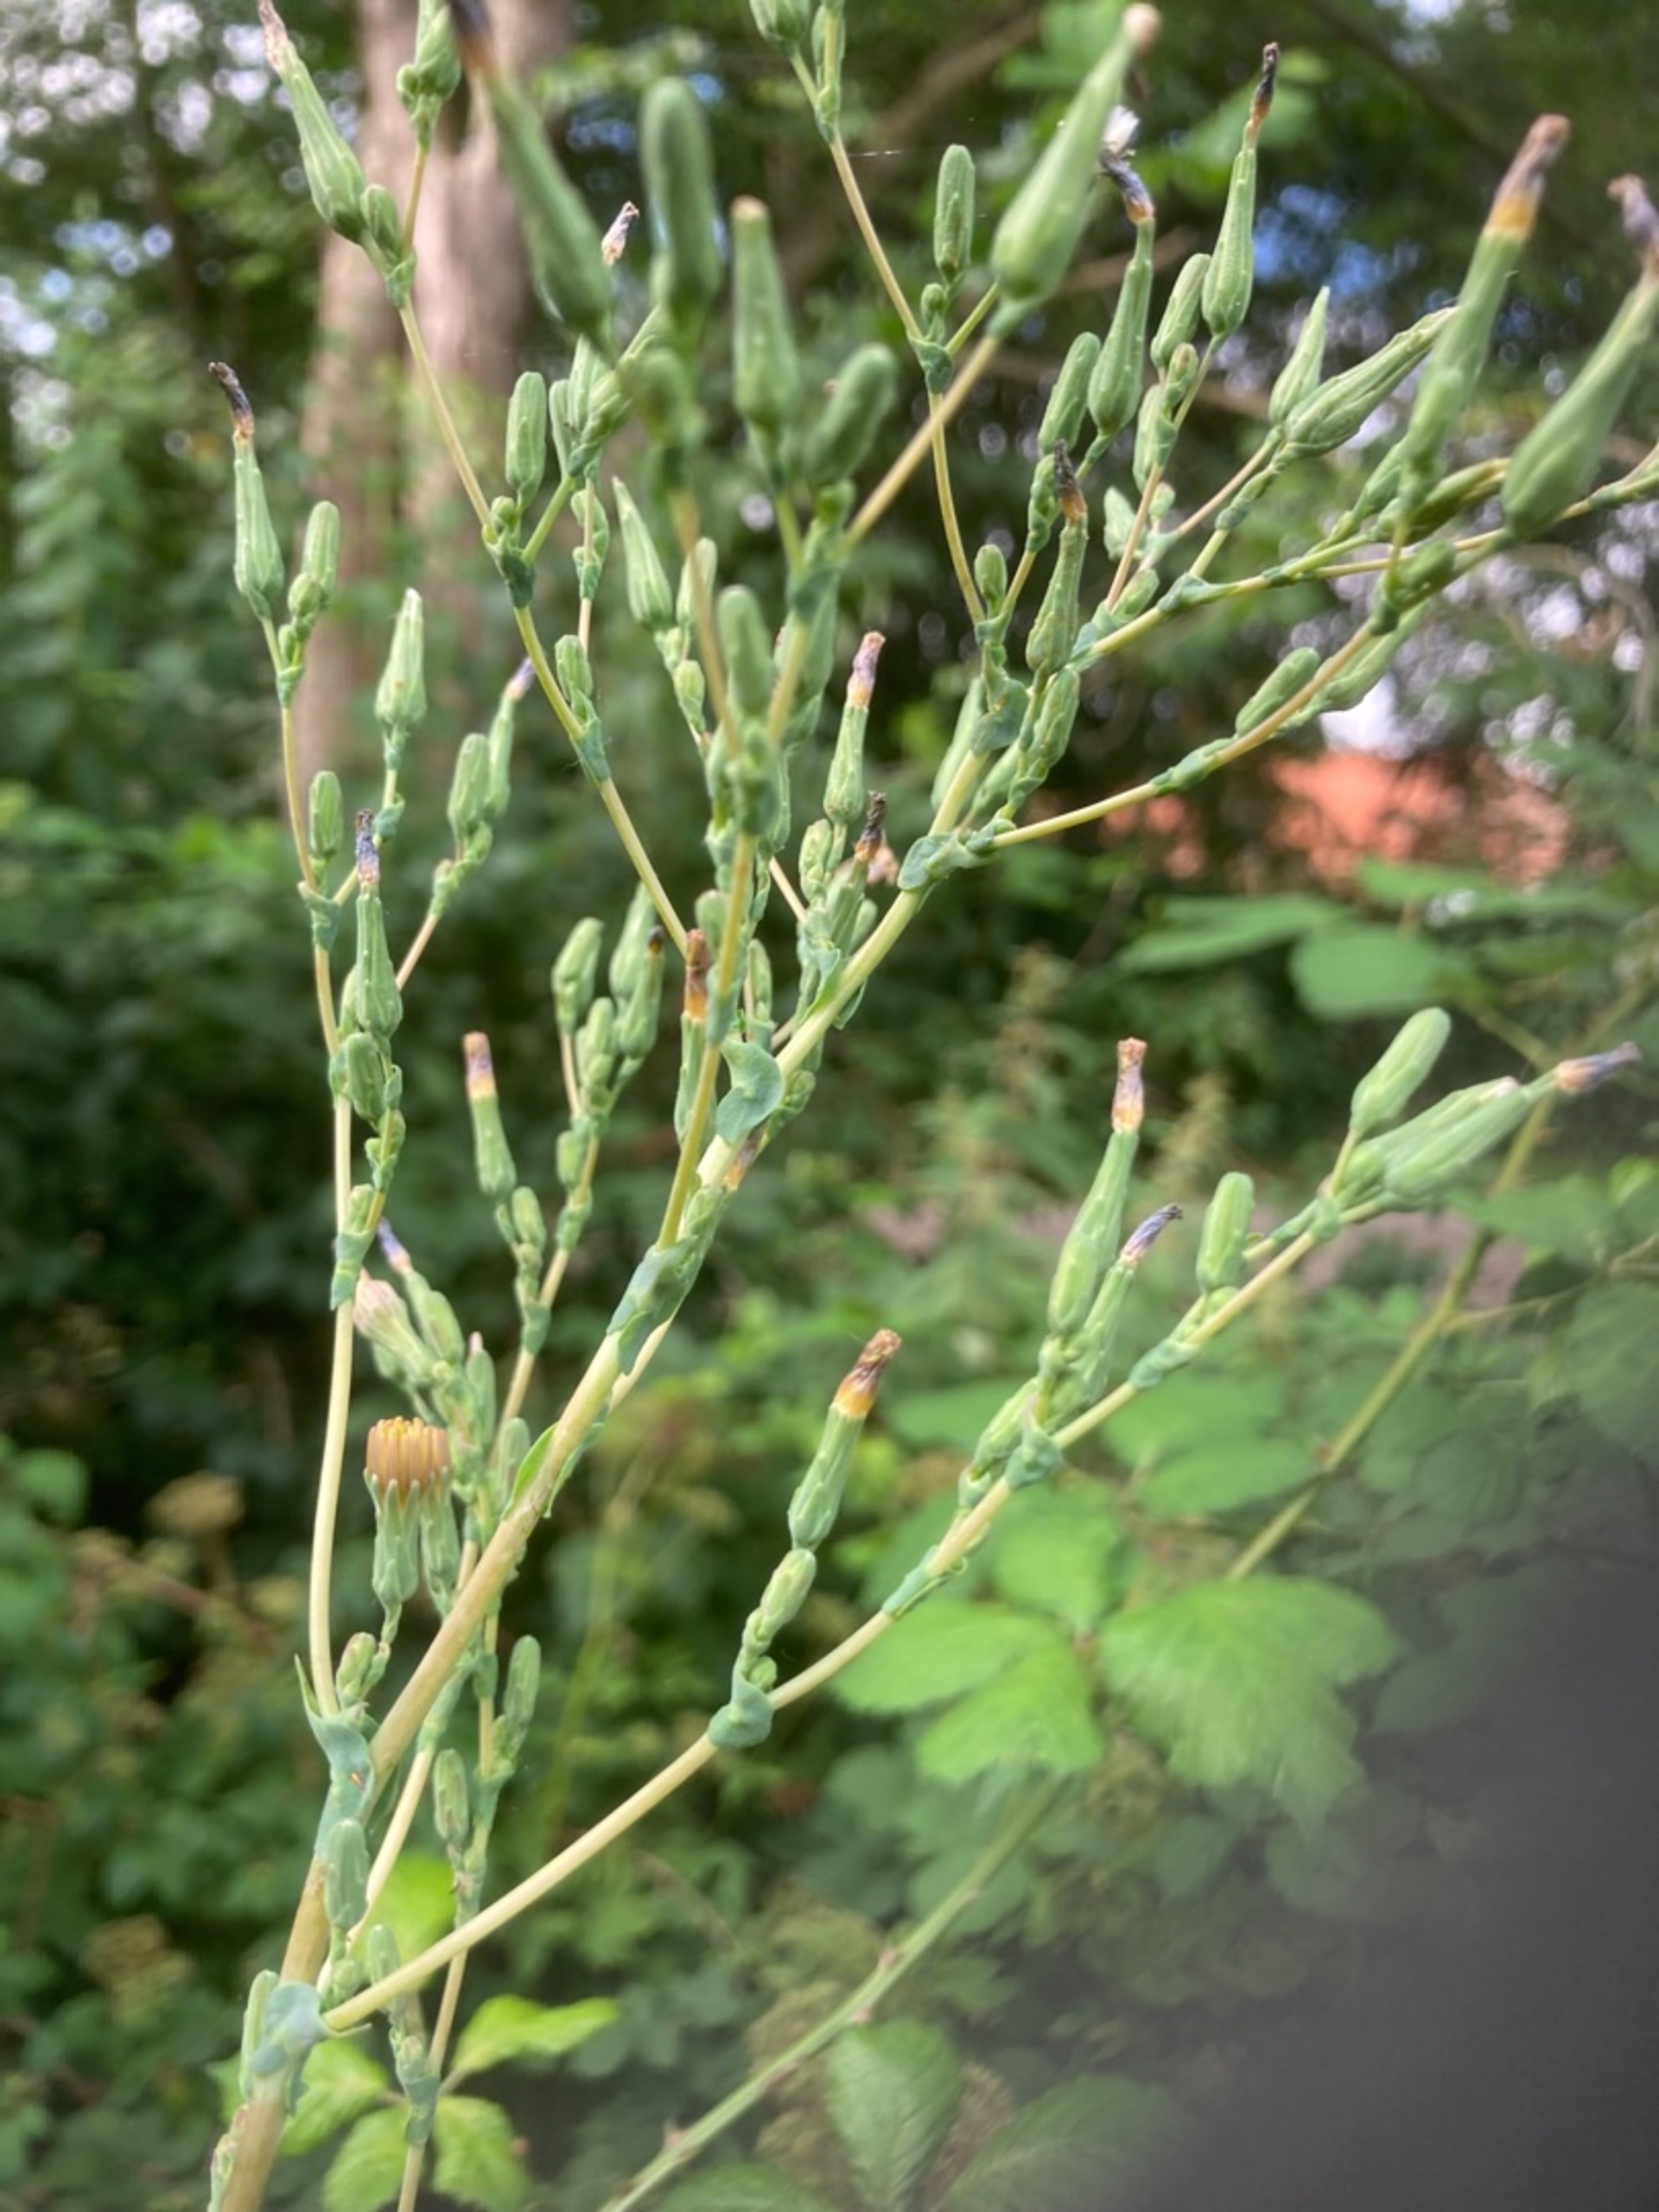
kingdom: Plantae
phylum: Tracheophyta
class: Magnoliopsida
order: Asterales
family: Asteraceae
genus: Lactuca
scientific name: Lactuca serriola
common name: Tornet salat
